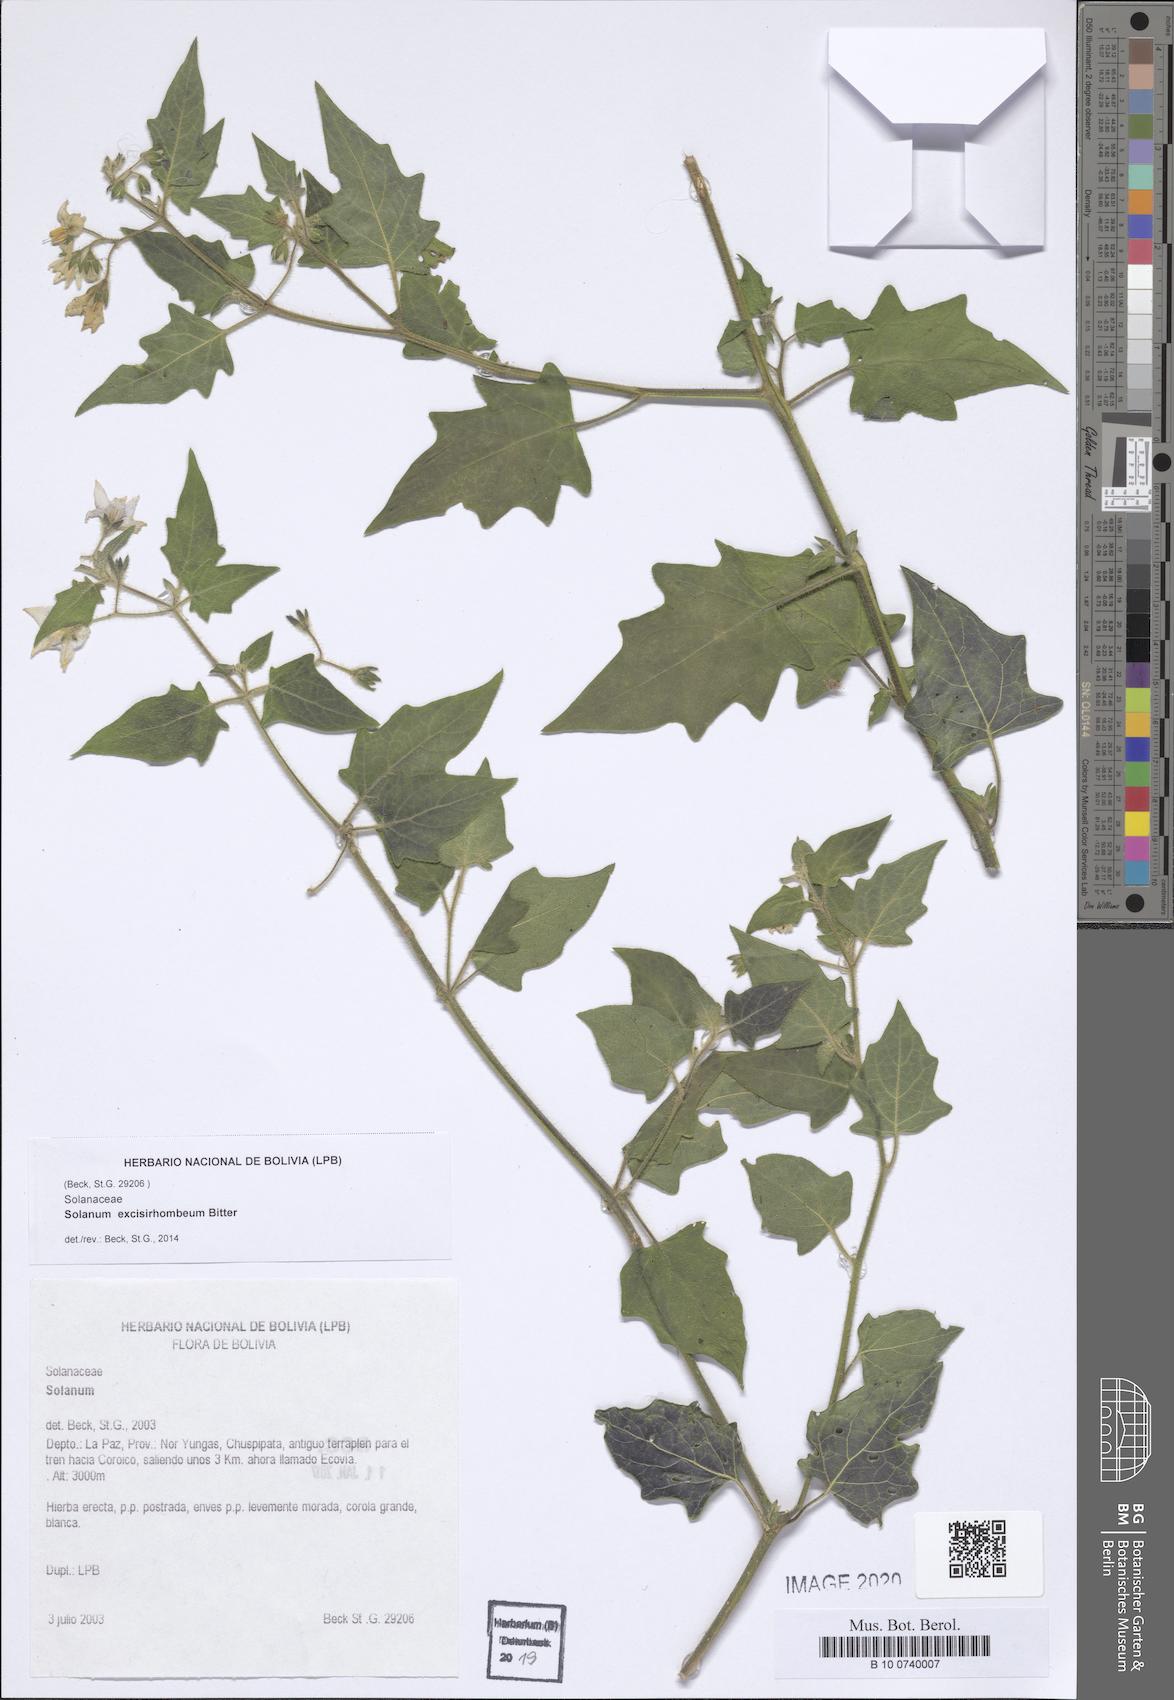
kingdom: Plantae
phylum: Tracheophyta
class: Magnoliopsida
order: Solanales
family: Solanaceae
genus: Solanum
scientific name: Solanum grandidentatum
